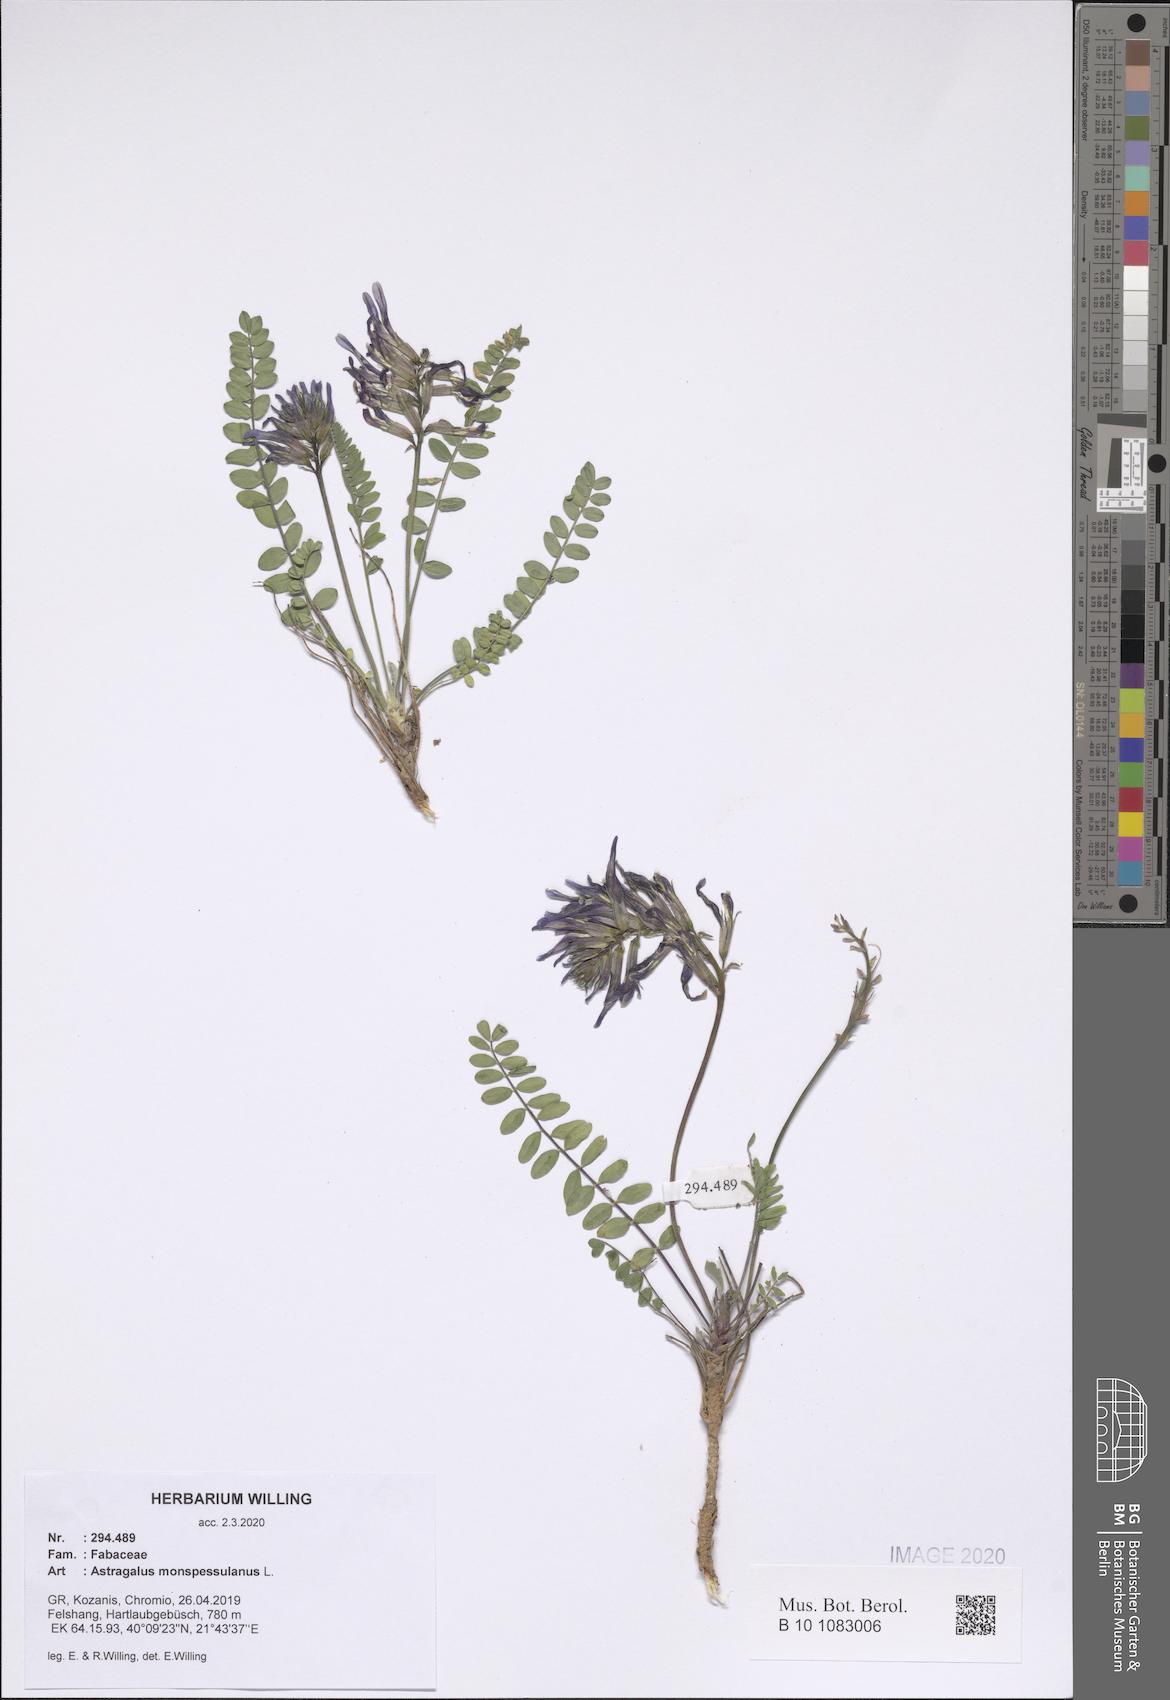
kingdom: Plantae
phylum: Tracheophyta
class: Magnoliopsida
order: Fabales
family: Fabaceae
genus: Astragalus
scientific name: Astragalus monspessulanus
